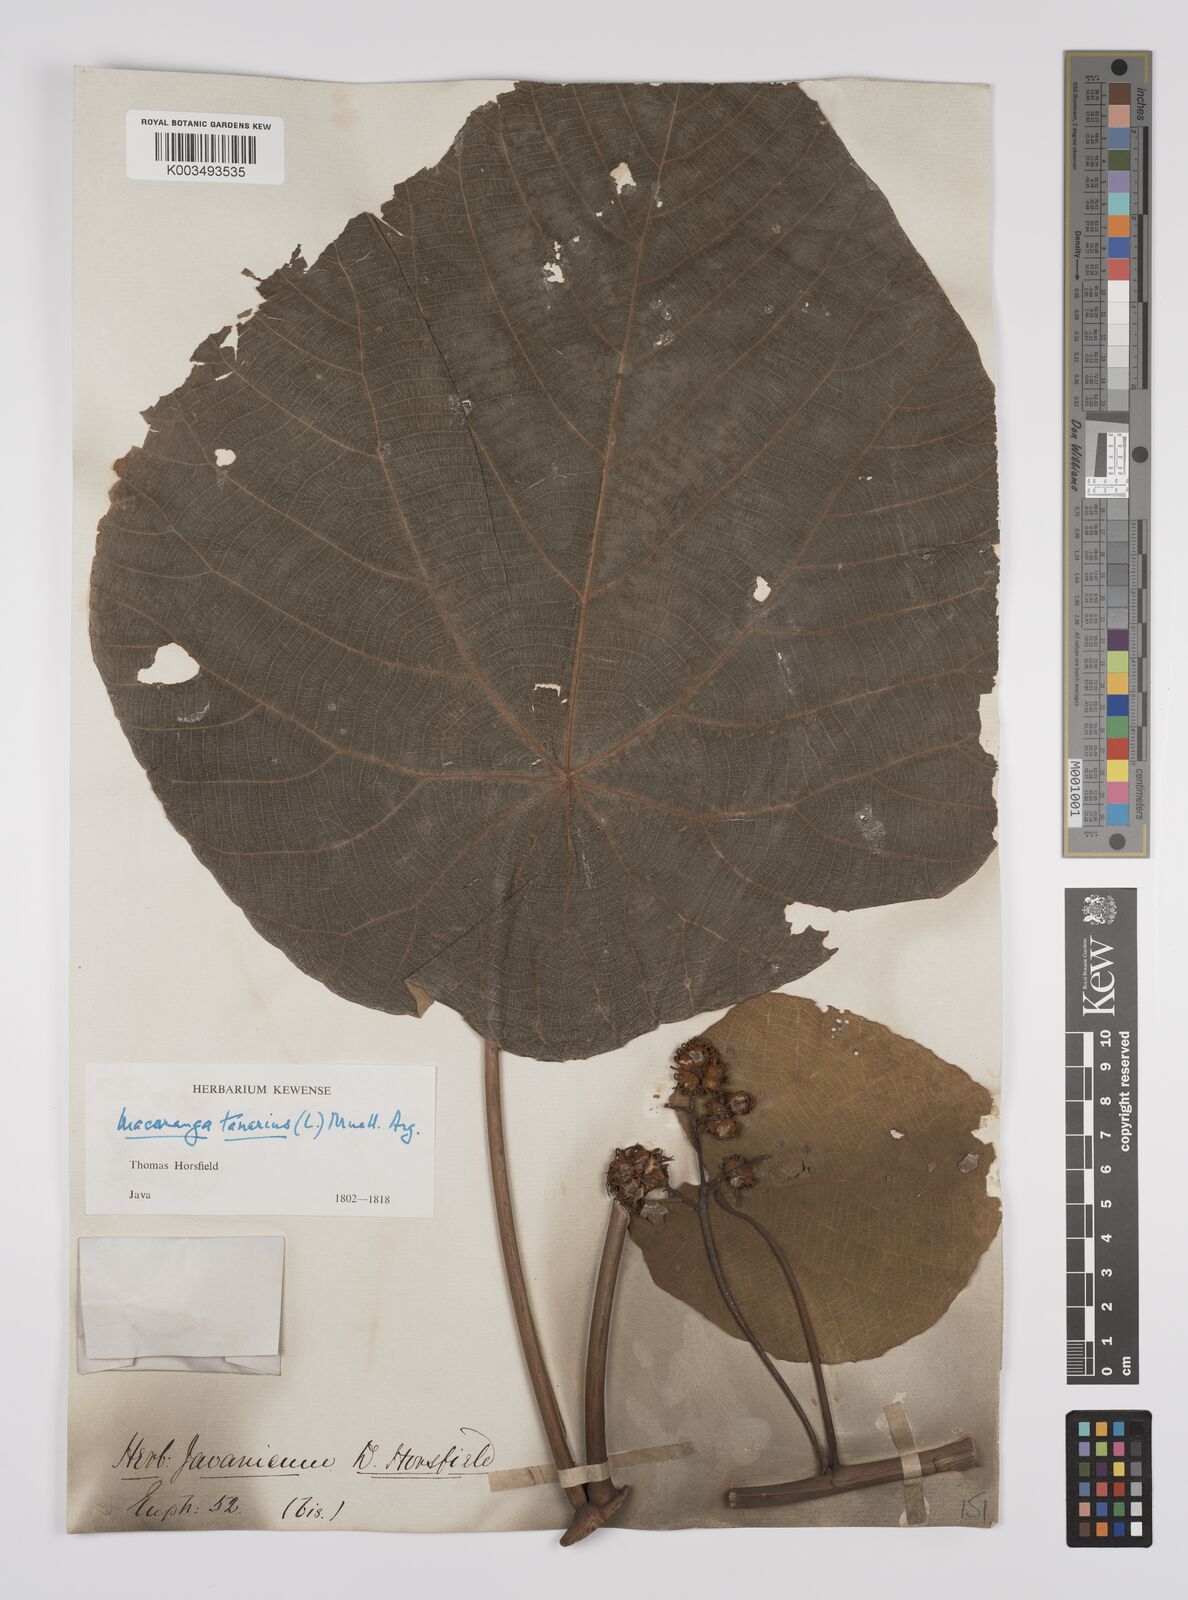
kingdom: Plantae
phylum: Tracheophyta
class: Magnoliopsida
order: Malpighiales
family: Euphorbiaceae
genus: Macaranga
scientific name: Macaranga tanarius
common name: Parasol leaf tree
